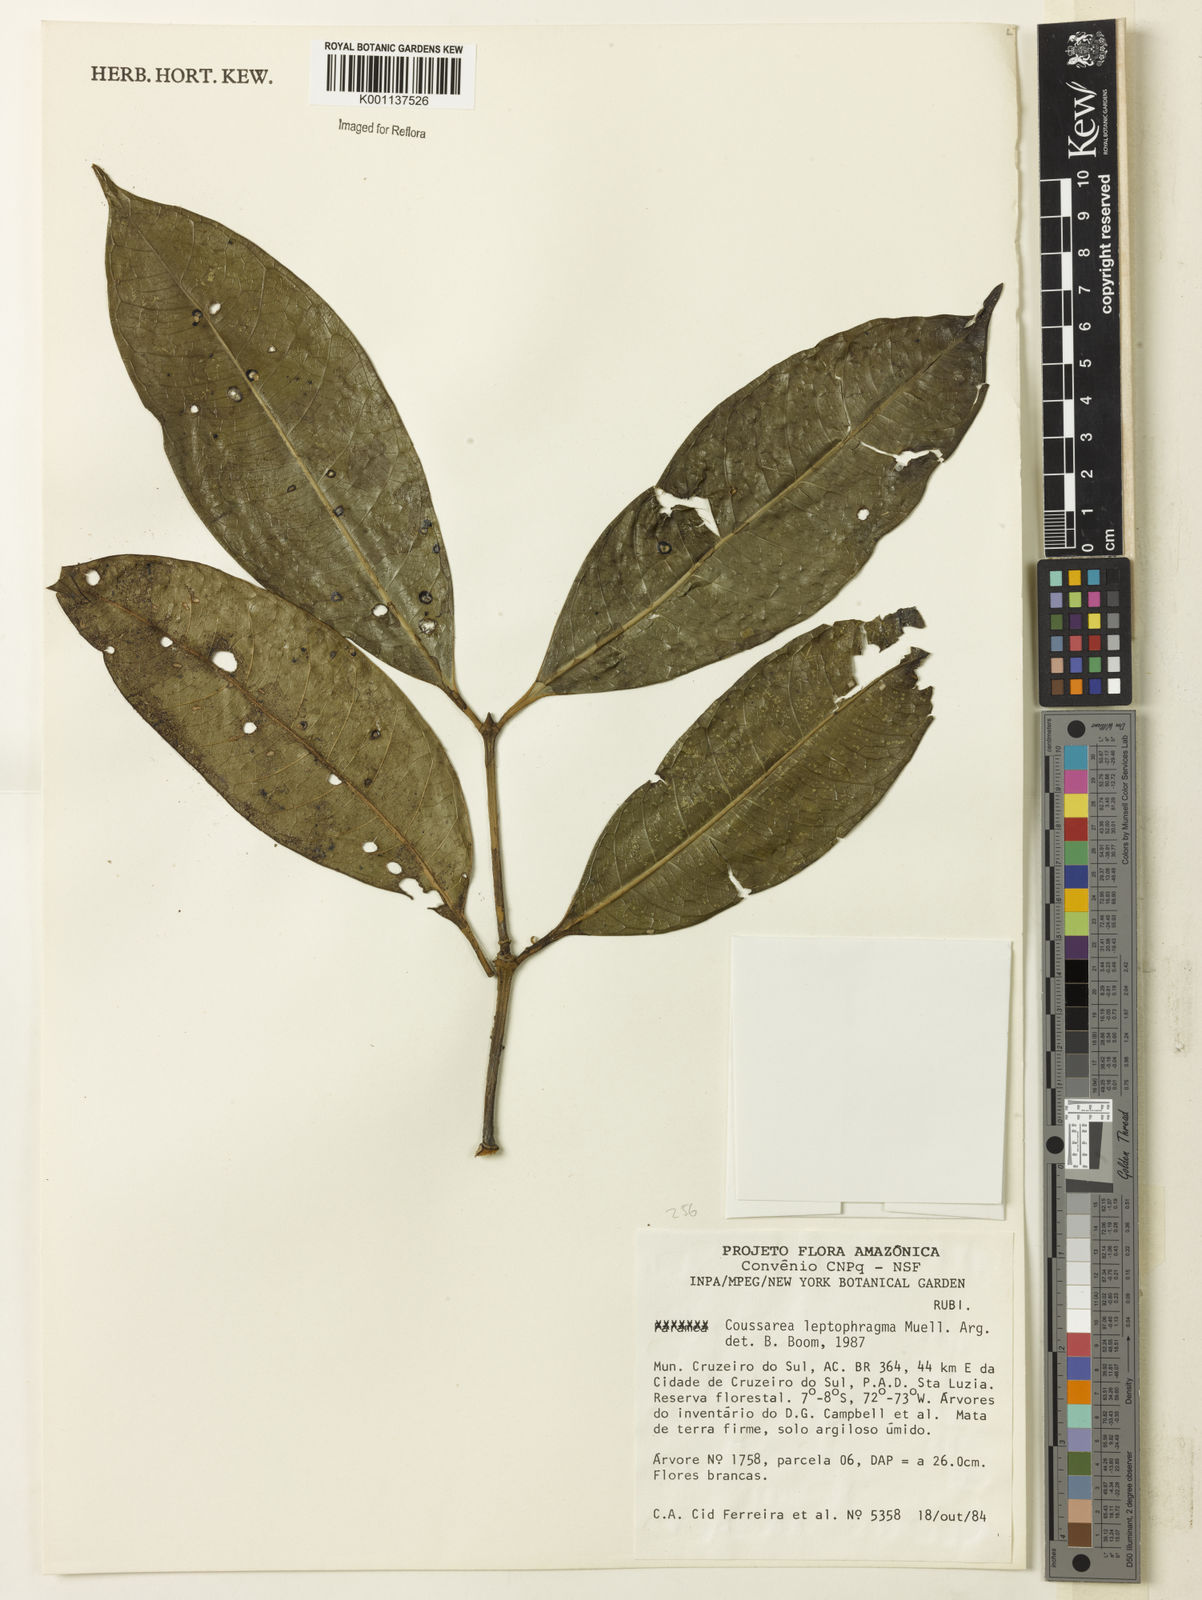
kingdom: Plantae
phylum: Tracheophyta
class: Magnoliopsida
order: Gentianales
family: Rubiaceae
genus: Coussarea
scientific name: Coussarea
